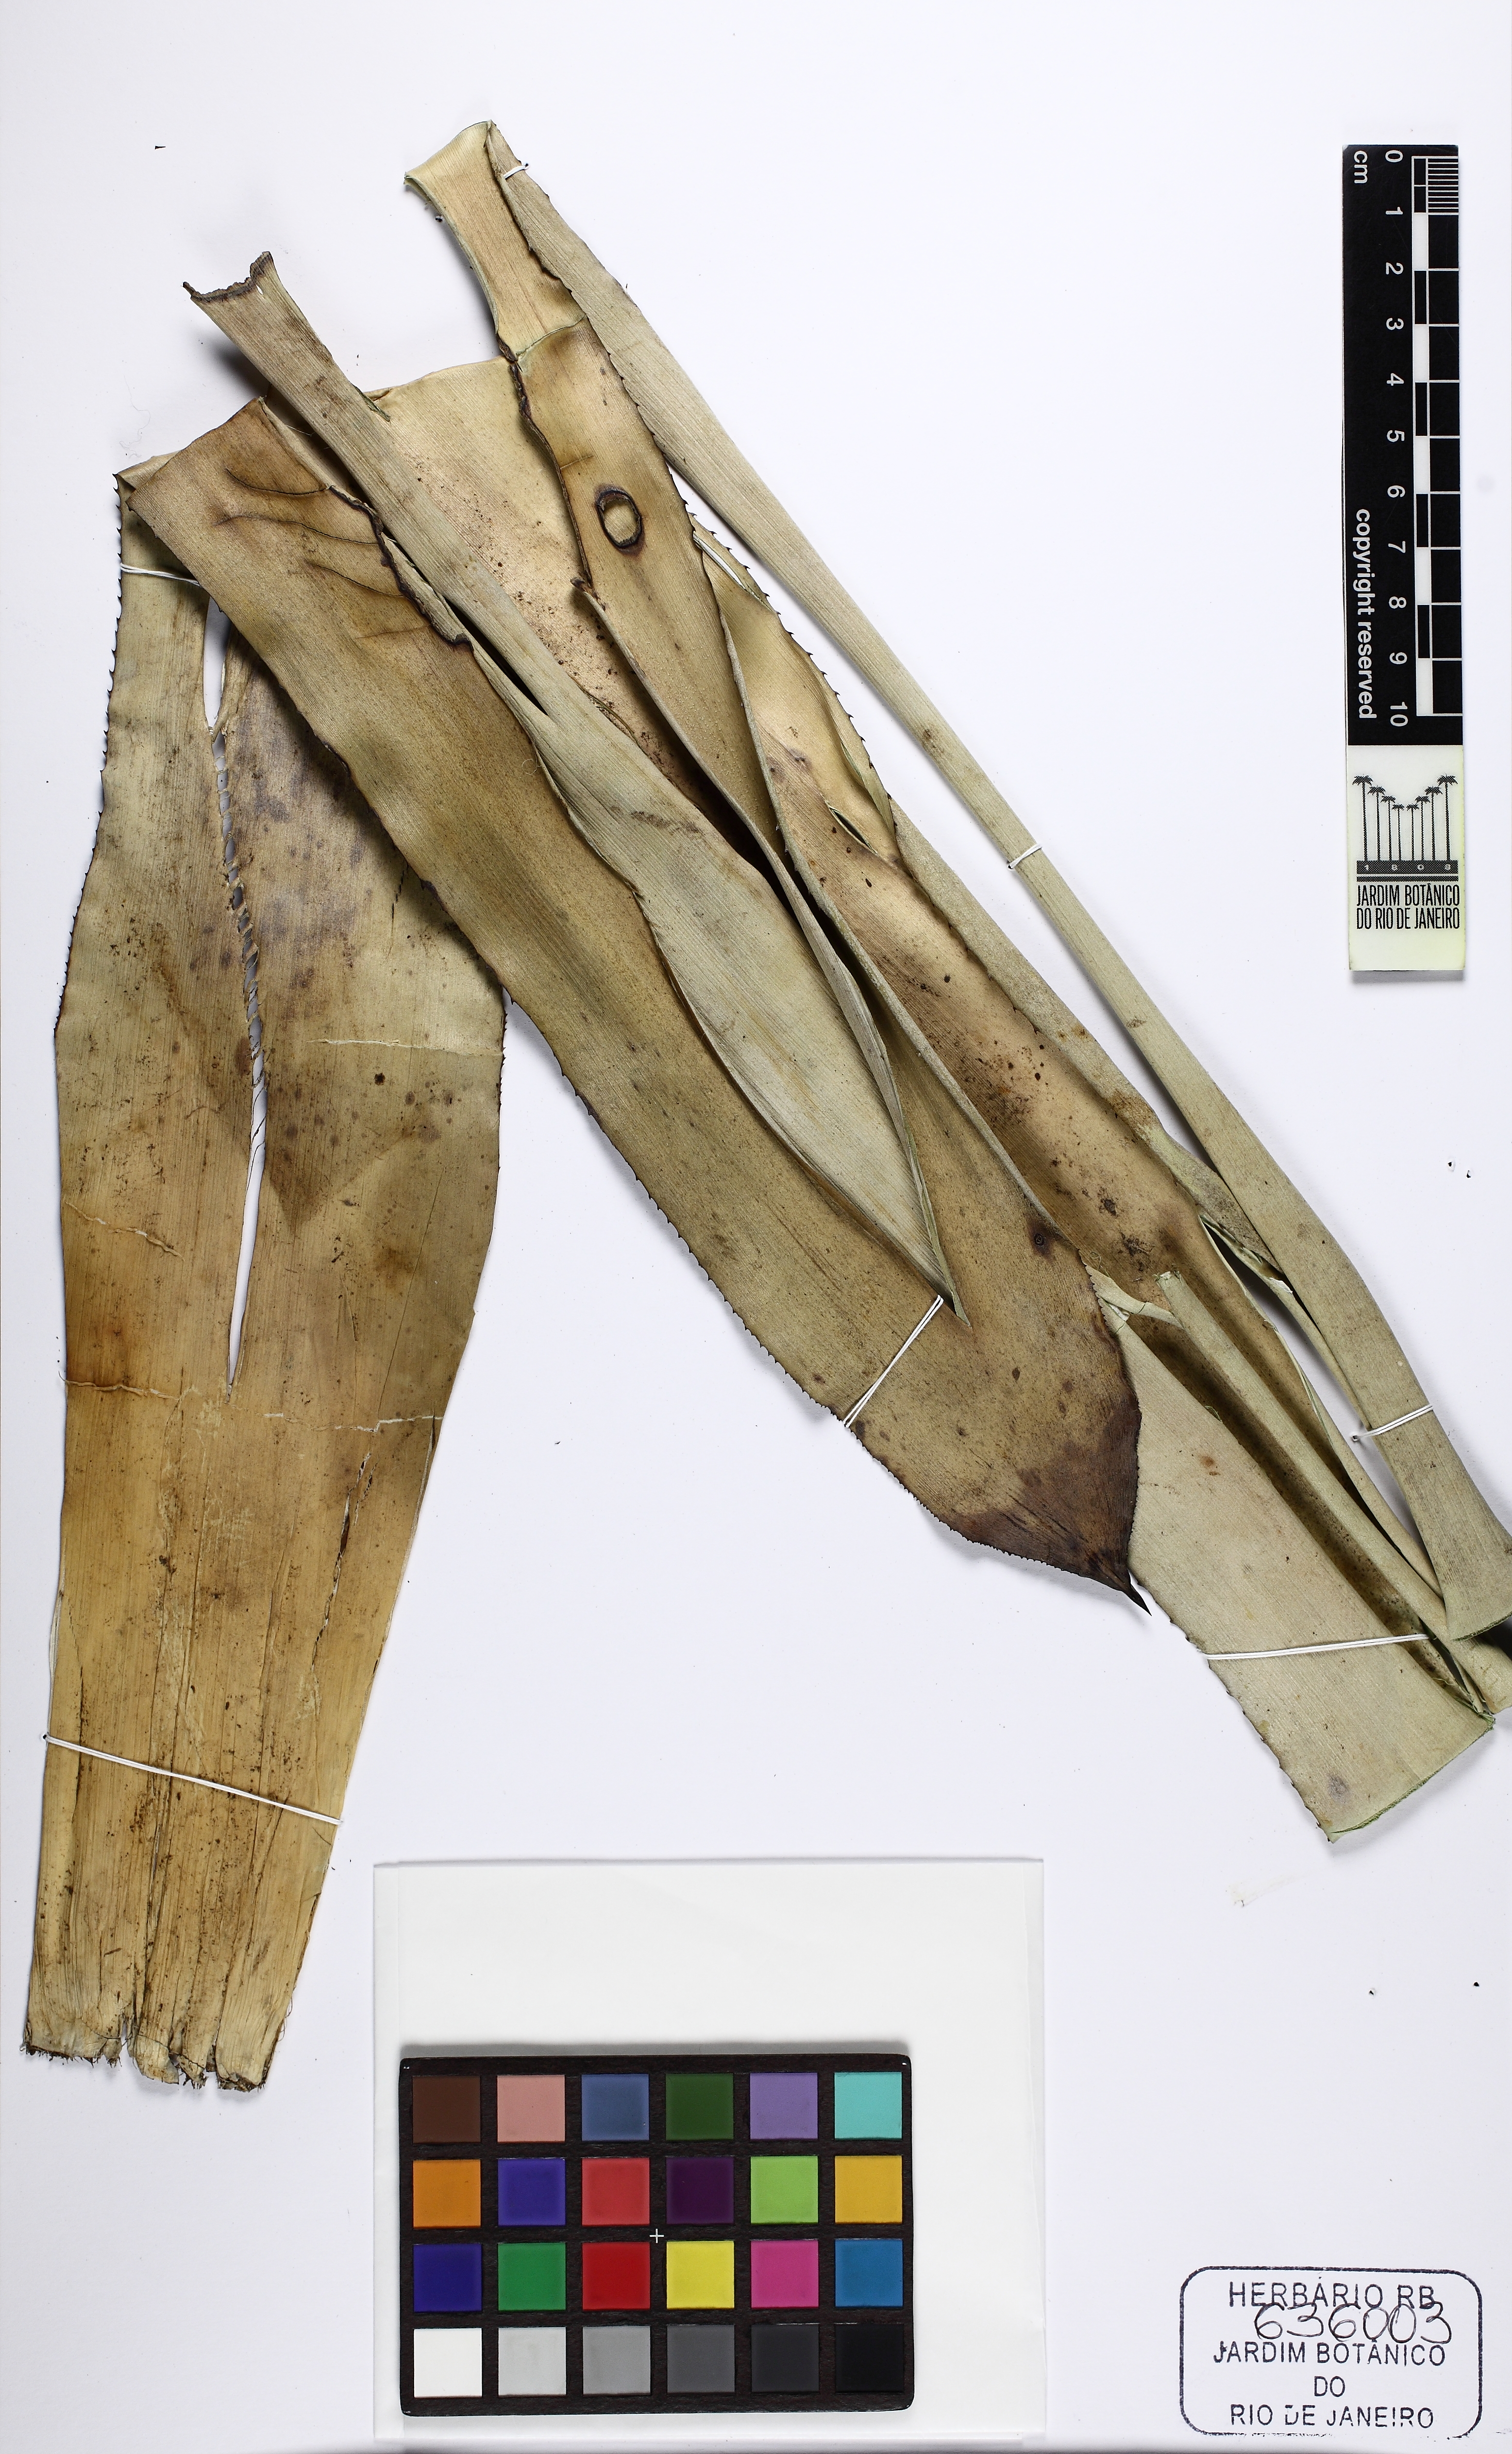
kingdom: Plantae
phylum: Tracheophyta
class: Liliopsida
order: Poales
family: Bromeliaceae
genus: Wittmackia
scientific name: Wittmackia sulbahianensis
